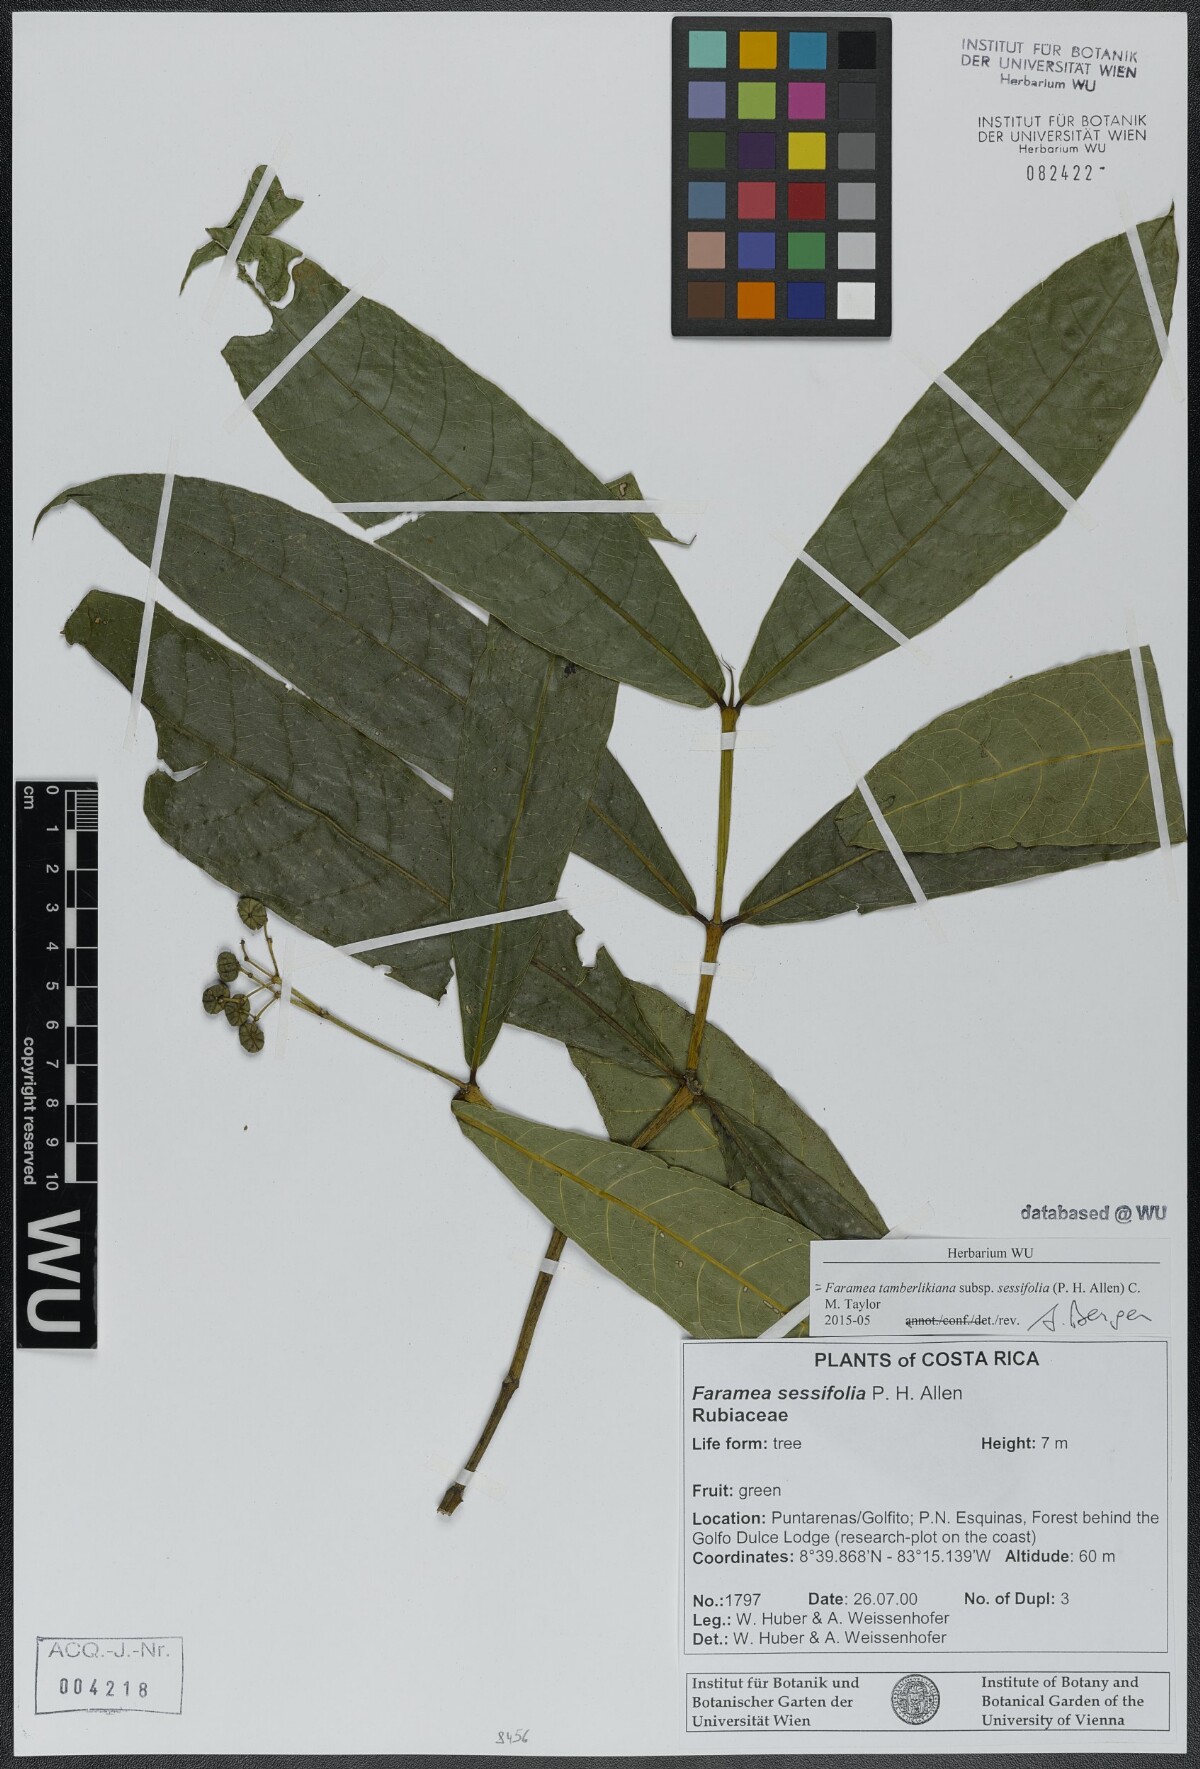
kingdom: Plantae
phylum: Tracheophyta
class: Magnoliopsida
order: Gentianales
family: Rubiaceae
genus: Faramea
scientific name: Faramea tamberlikiana
